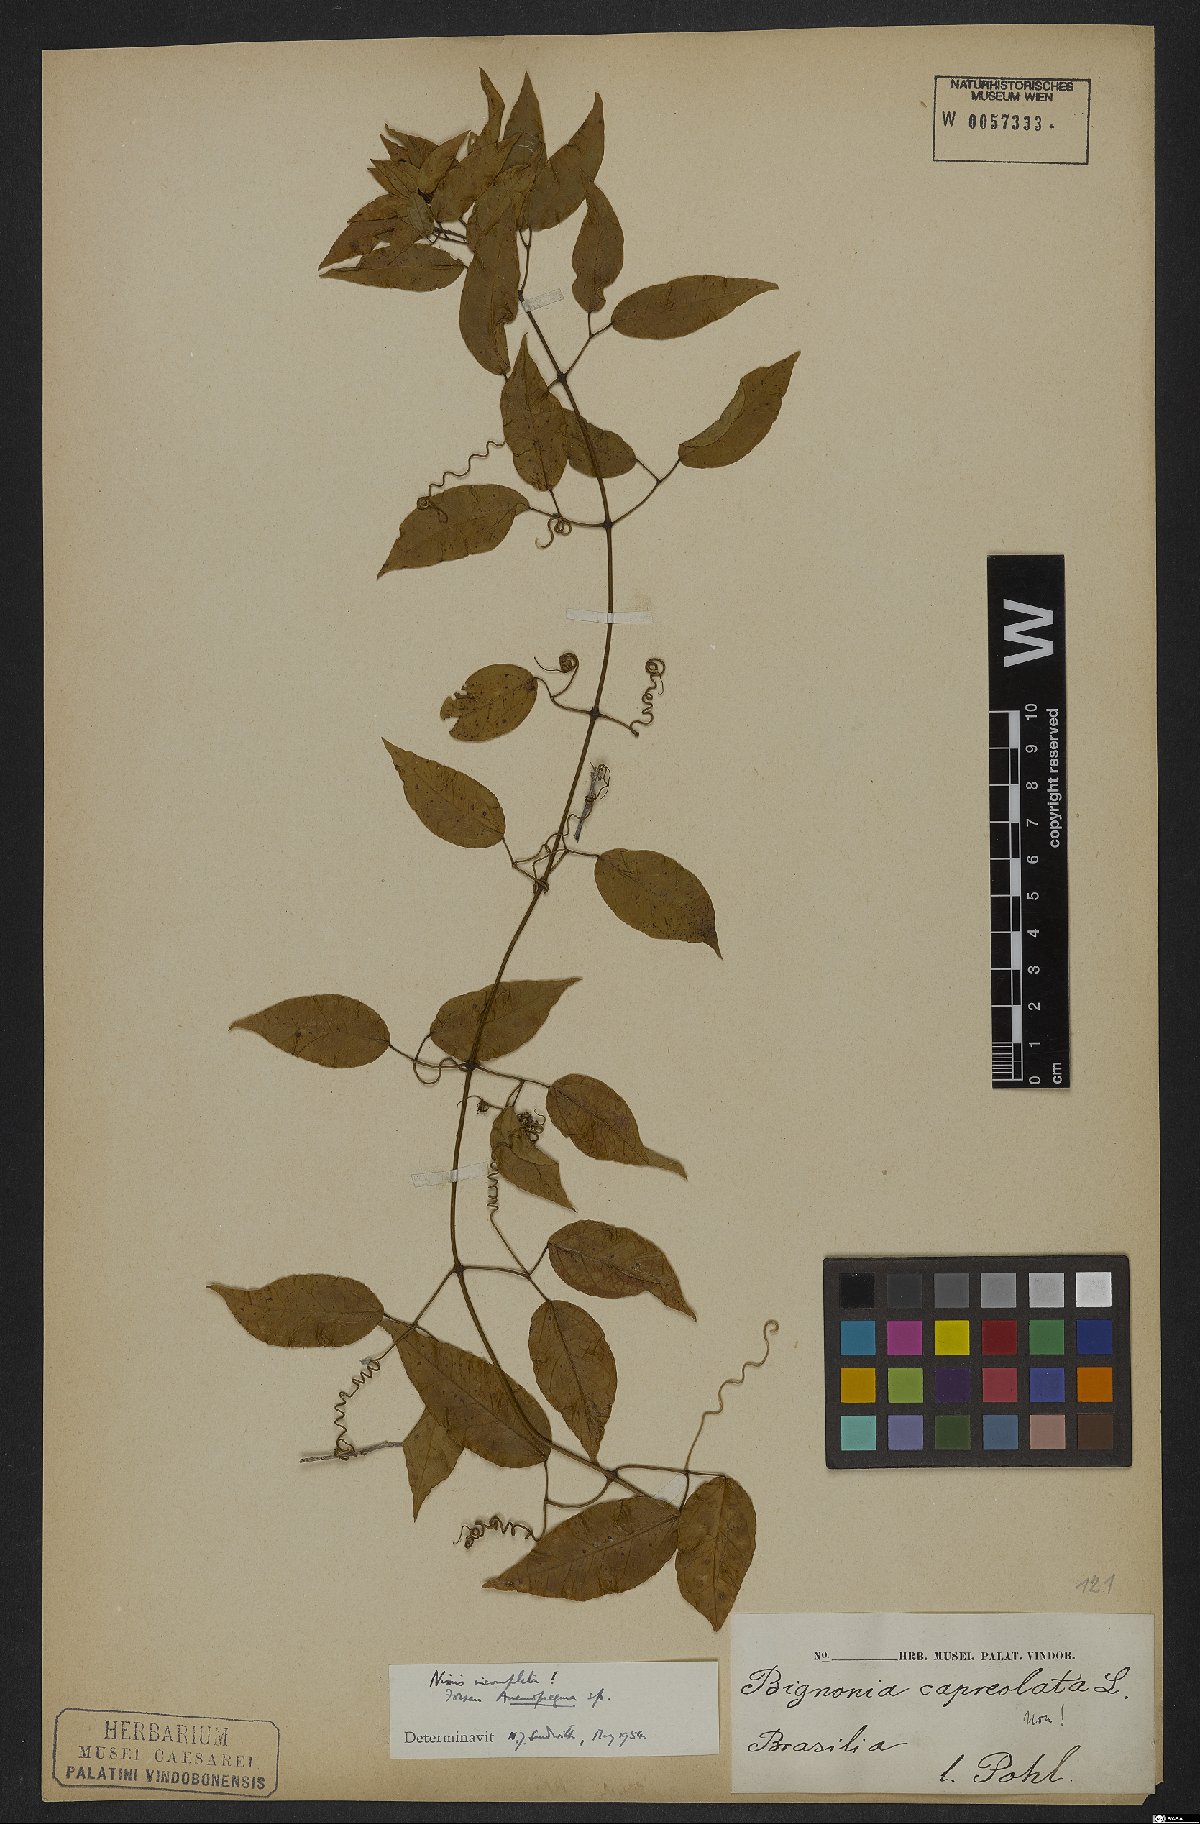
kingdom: Plantae
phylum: Tracheophyta
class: Magnoliopsida
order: Lamiales
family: Bignoniaceae
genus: Anemopaegma
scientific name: Anemopaegma
